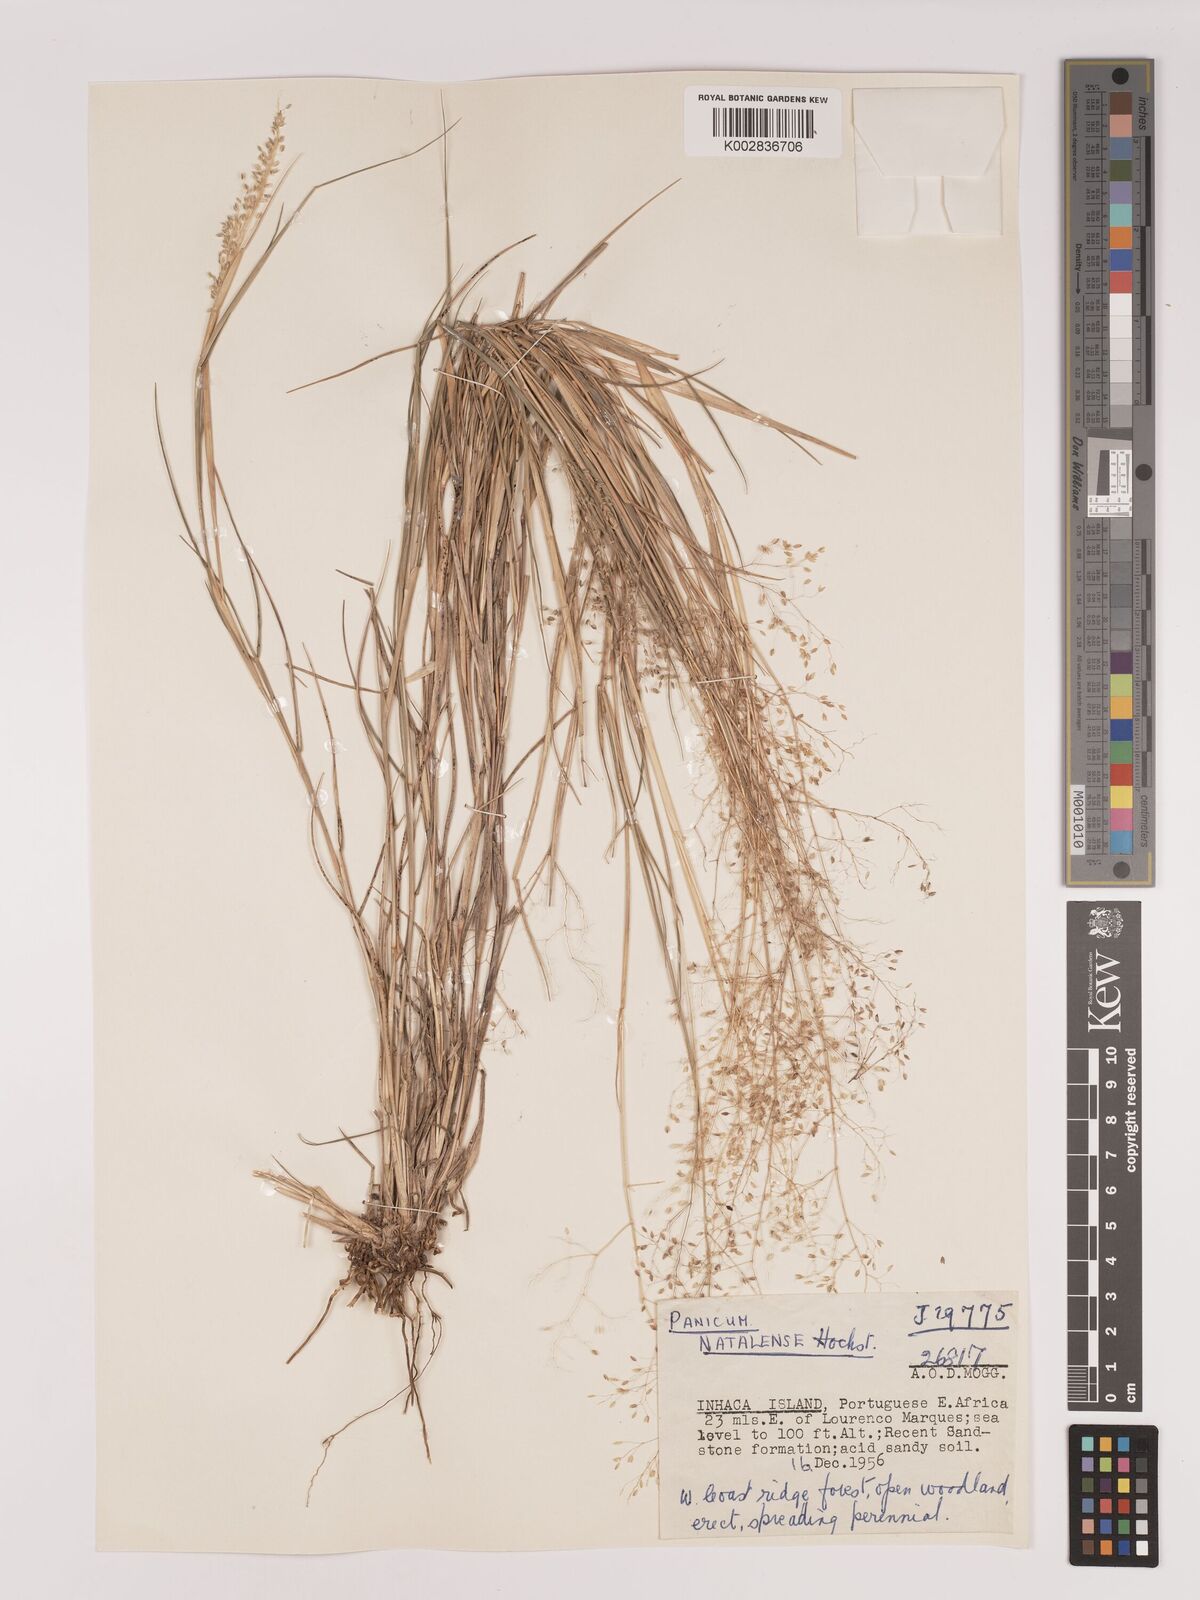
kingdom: Plantae
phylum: Tracheophyta
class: Liliopsida
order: Poales
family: Poaceae
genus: Tricholaena
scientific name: Tricholaena monachne
